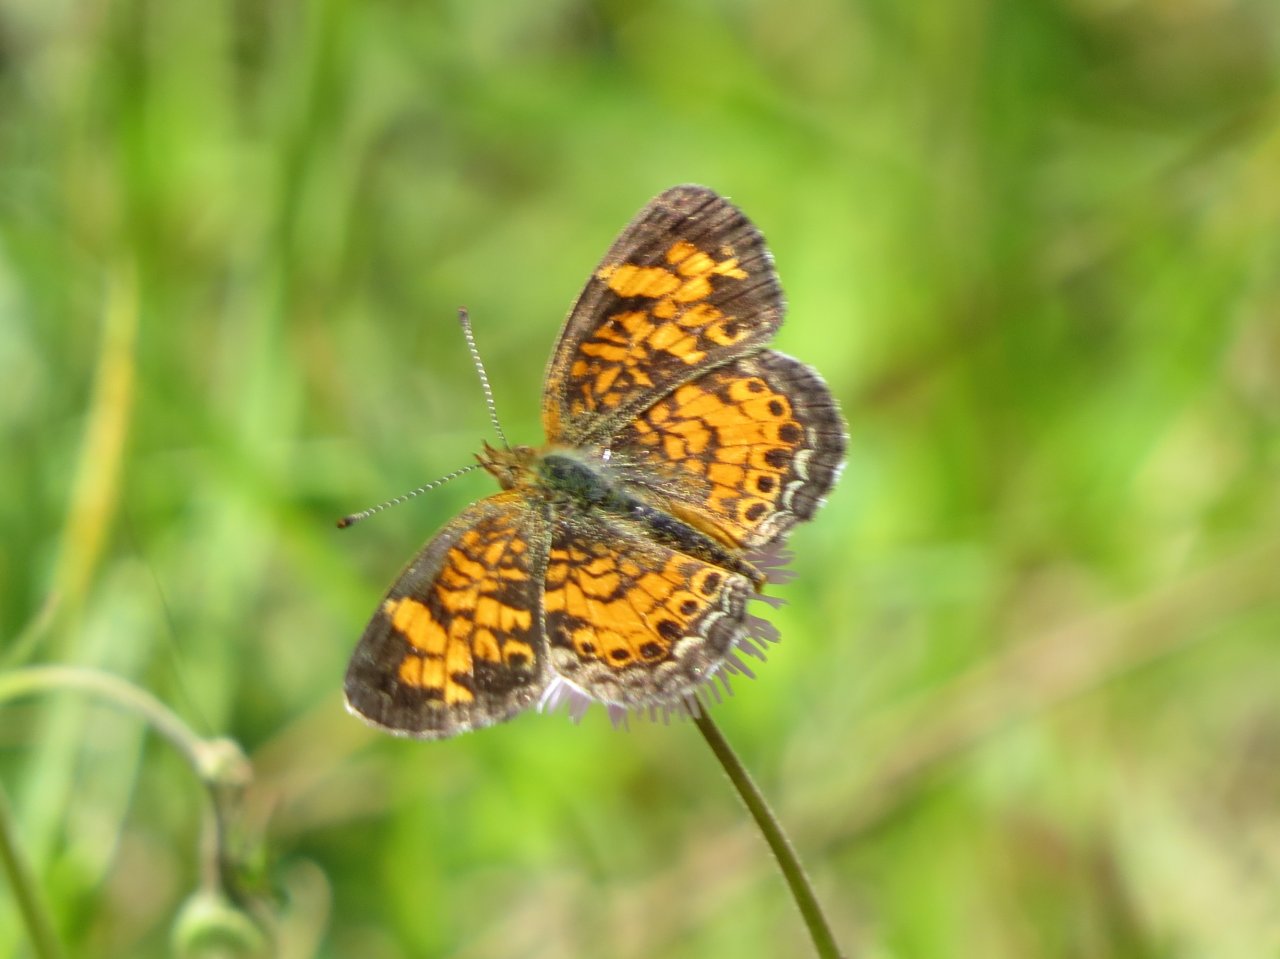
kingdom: Animalia
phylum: Arthropoda
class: Insecta
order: Lepidoptera
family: Nymphalidae
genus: Phyciodes
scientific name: Phyciodes tharos
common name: Pearl Crescent
